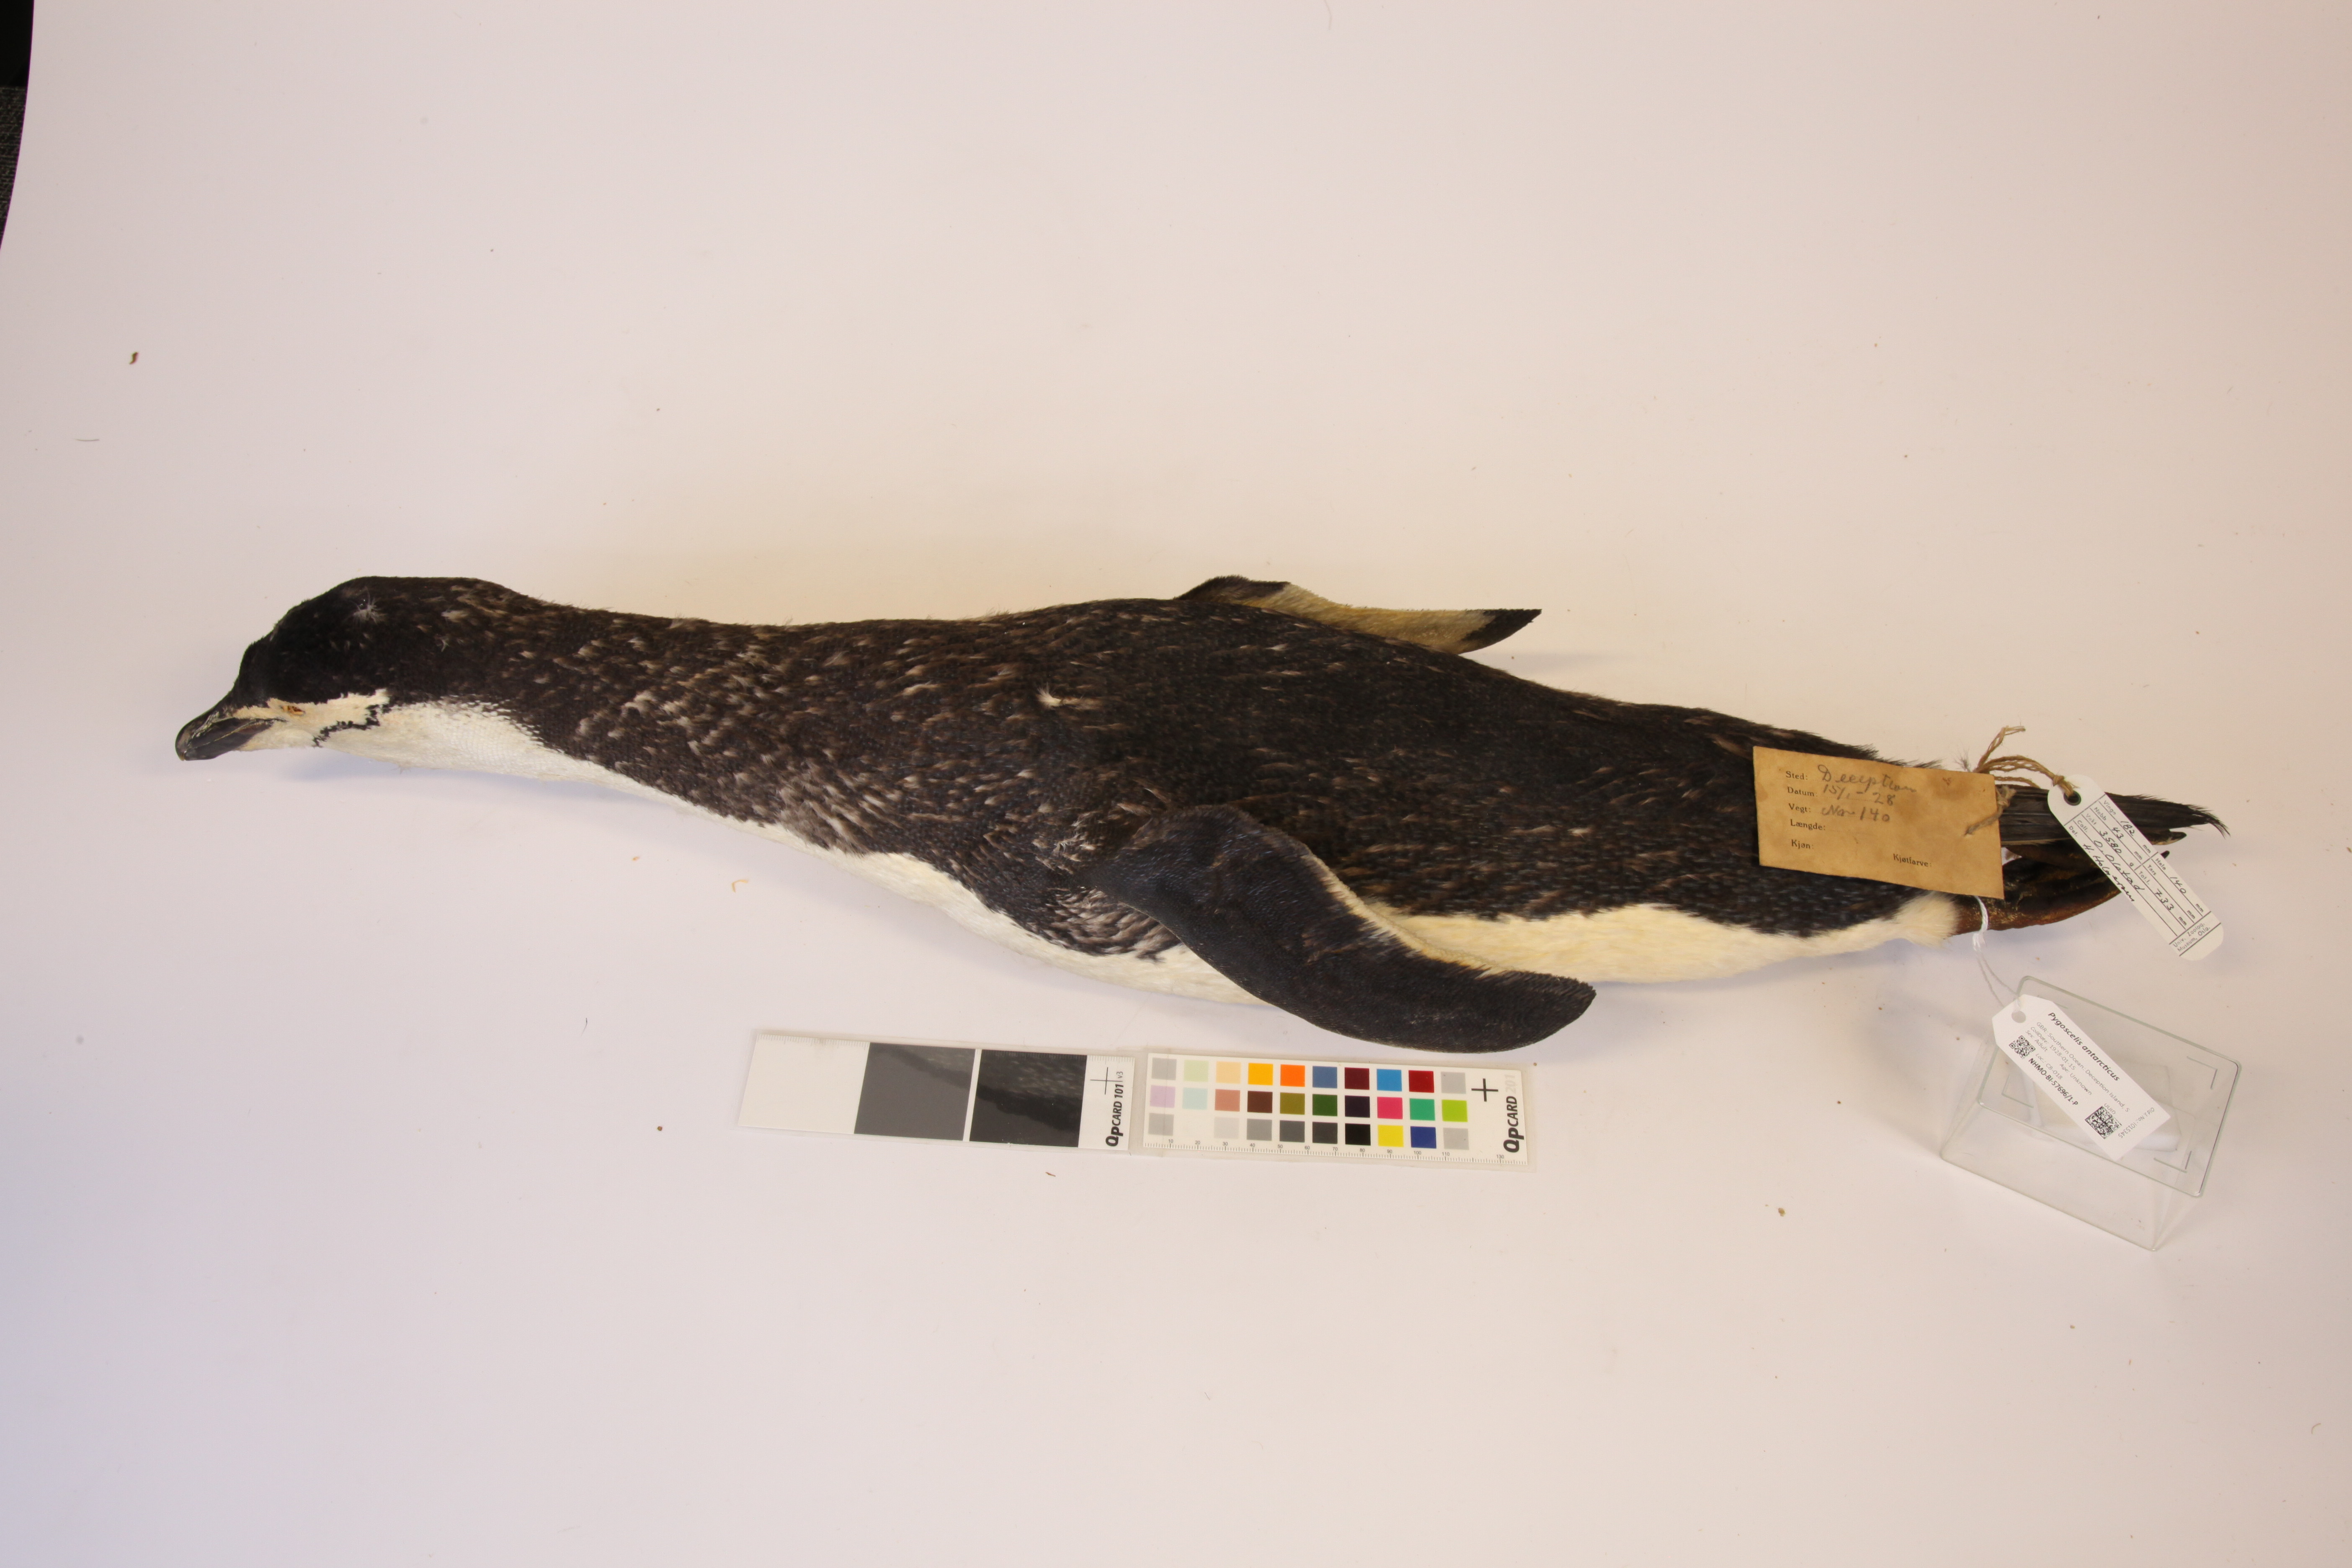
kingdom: Animalia
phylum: Chordata
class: Aves
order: Sphenisciformes
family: Spheniscidae
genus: Pygoscelis
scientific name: Pygoscelis antarcticus
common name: Chinstrap penguin
